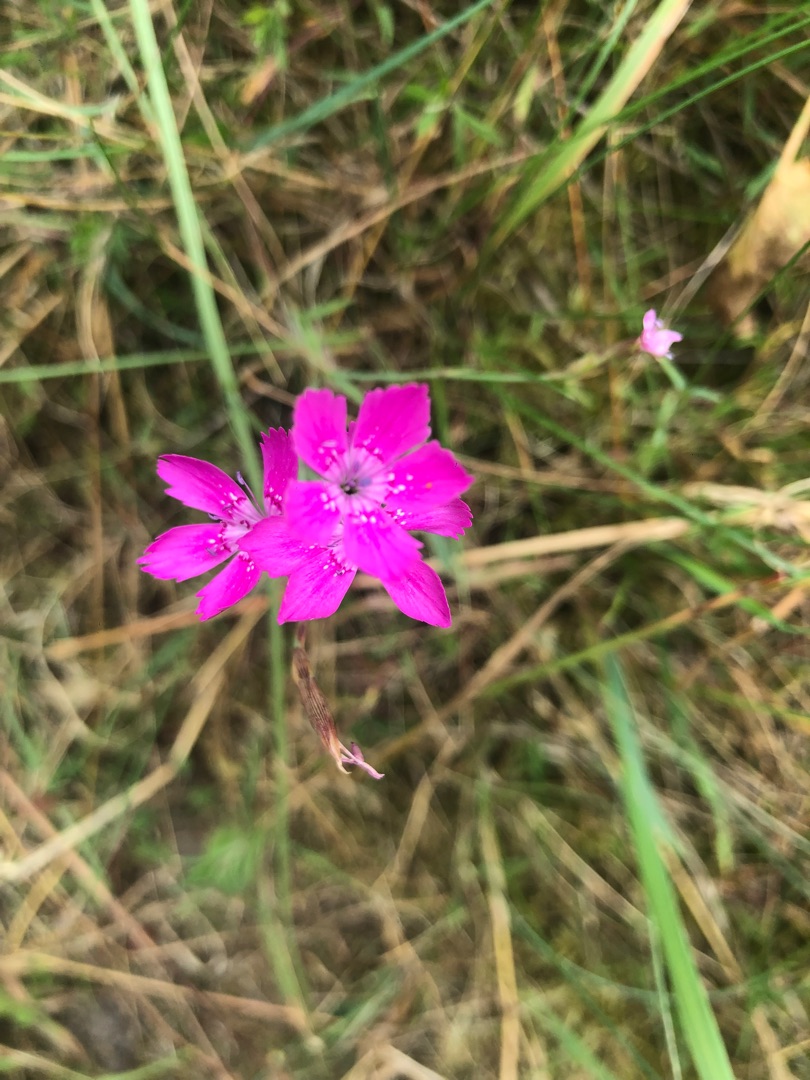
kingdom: Plantae
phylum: Tracheophyta
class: Magnoliopsida
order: Caryophyllales
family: Caryophyllaceae
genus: Dianthus
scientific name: Dianthus deltoides
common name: Bakke-nellike
